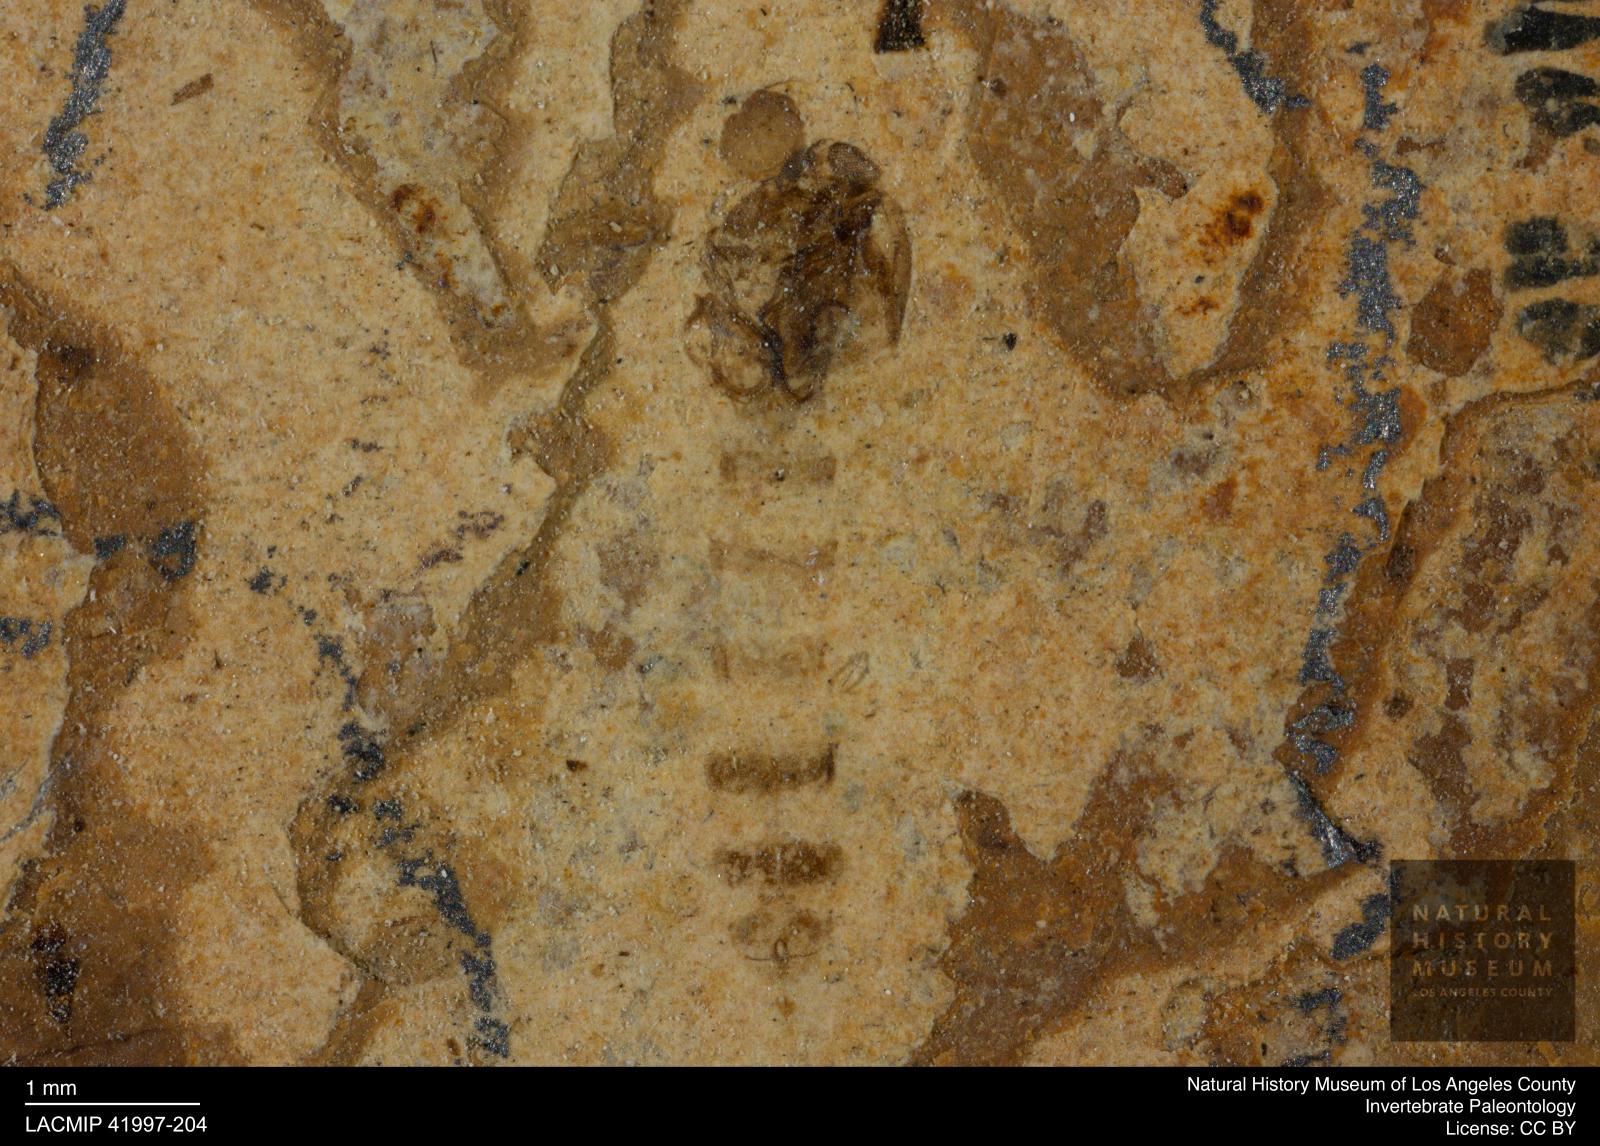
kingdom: Animalia
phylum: Arthropoda
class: Insecta
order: Diptera
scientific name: Diptera
